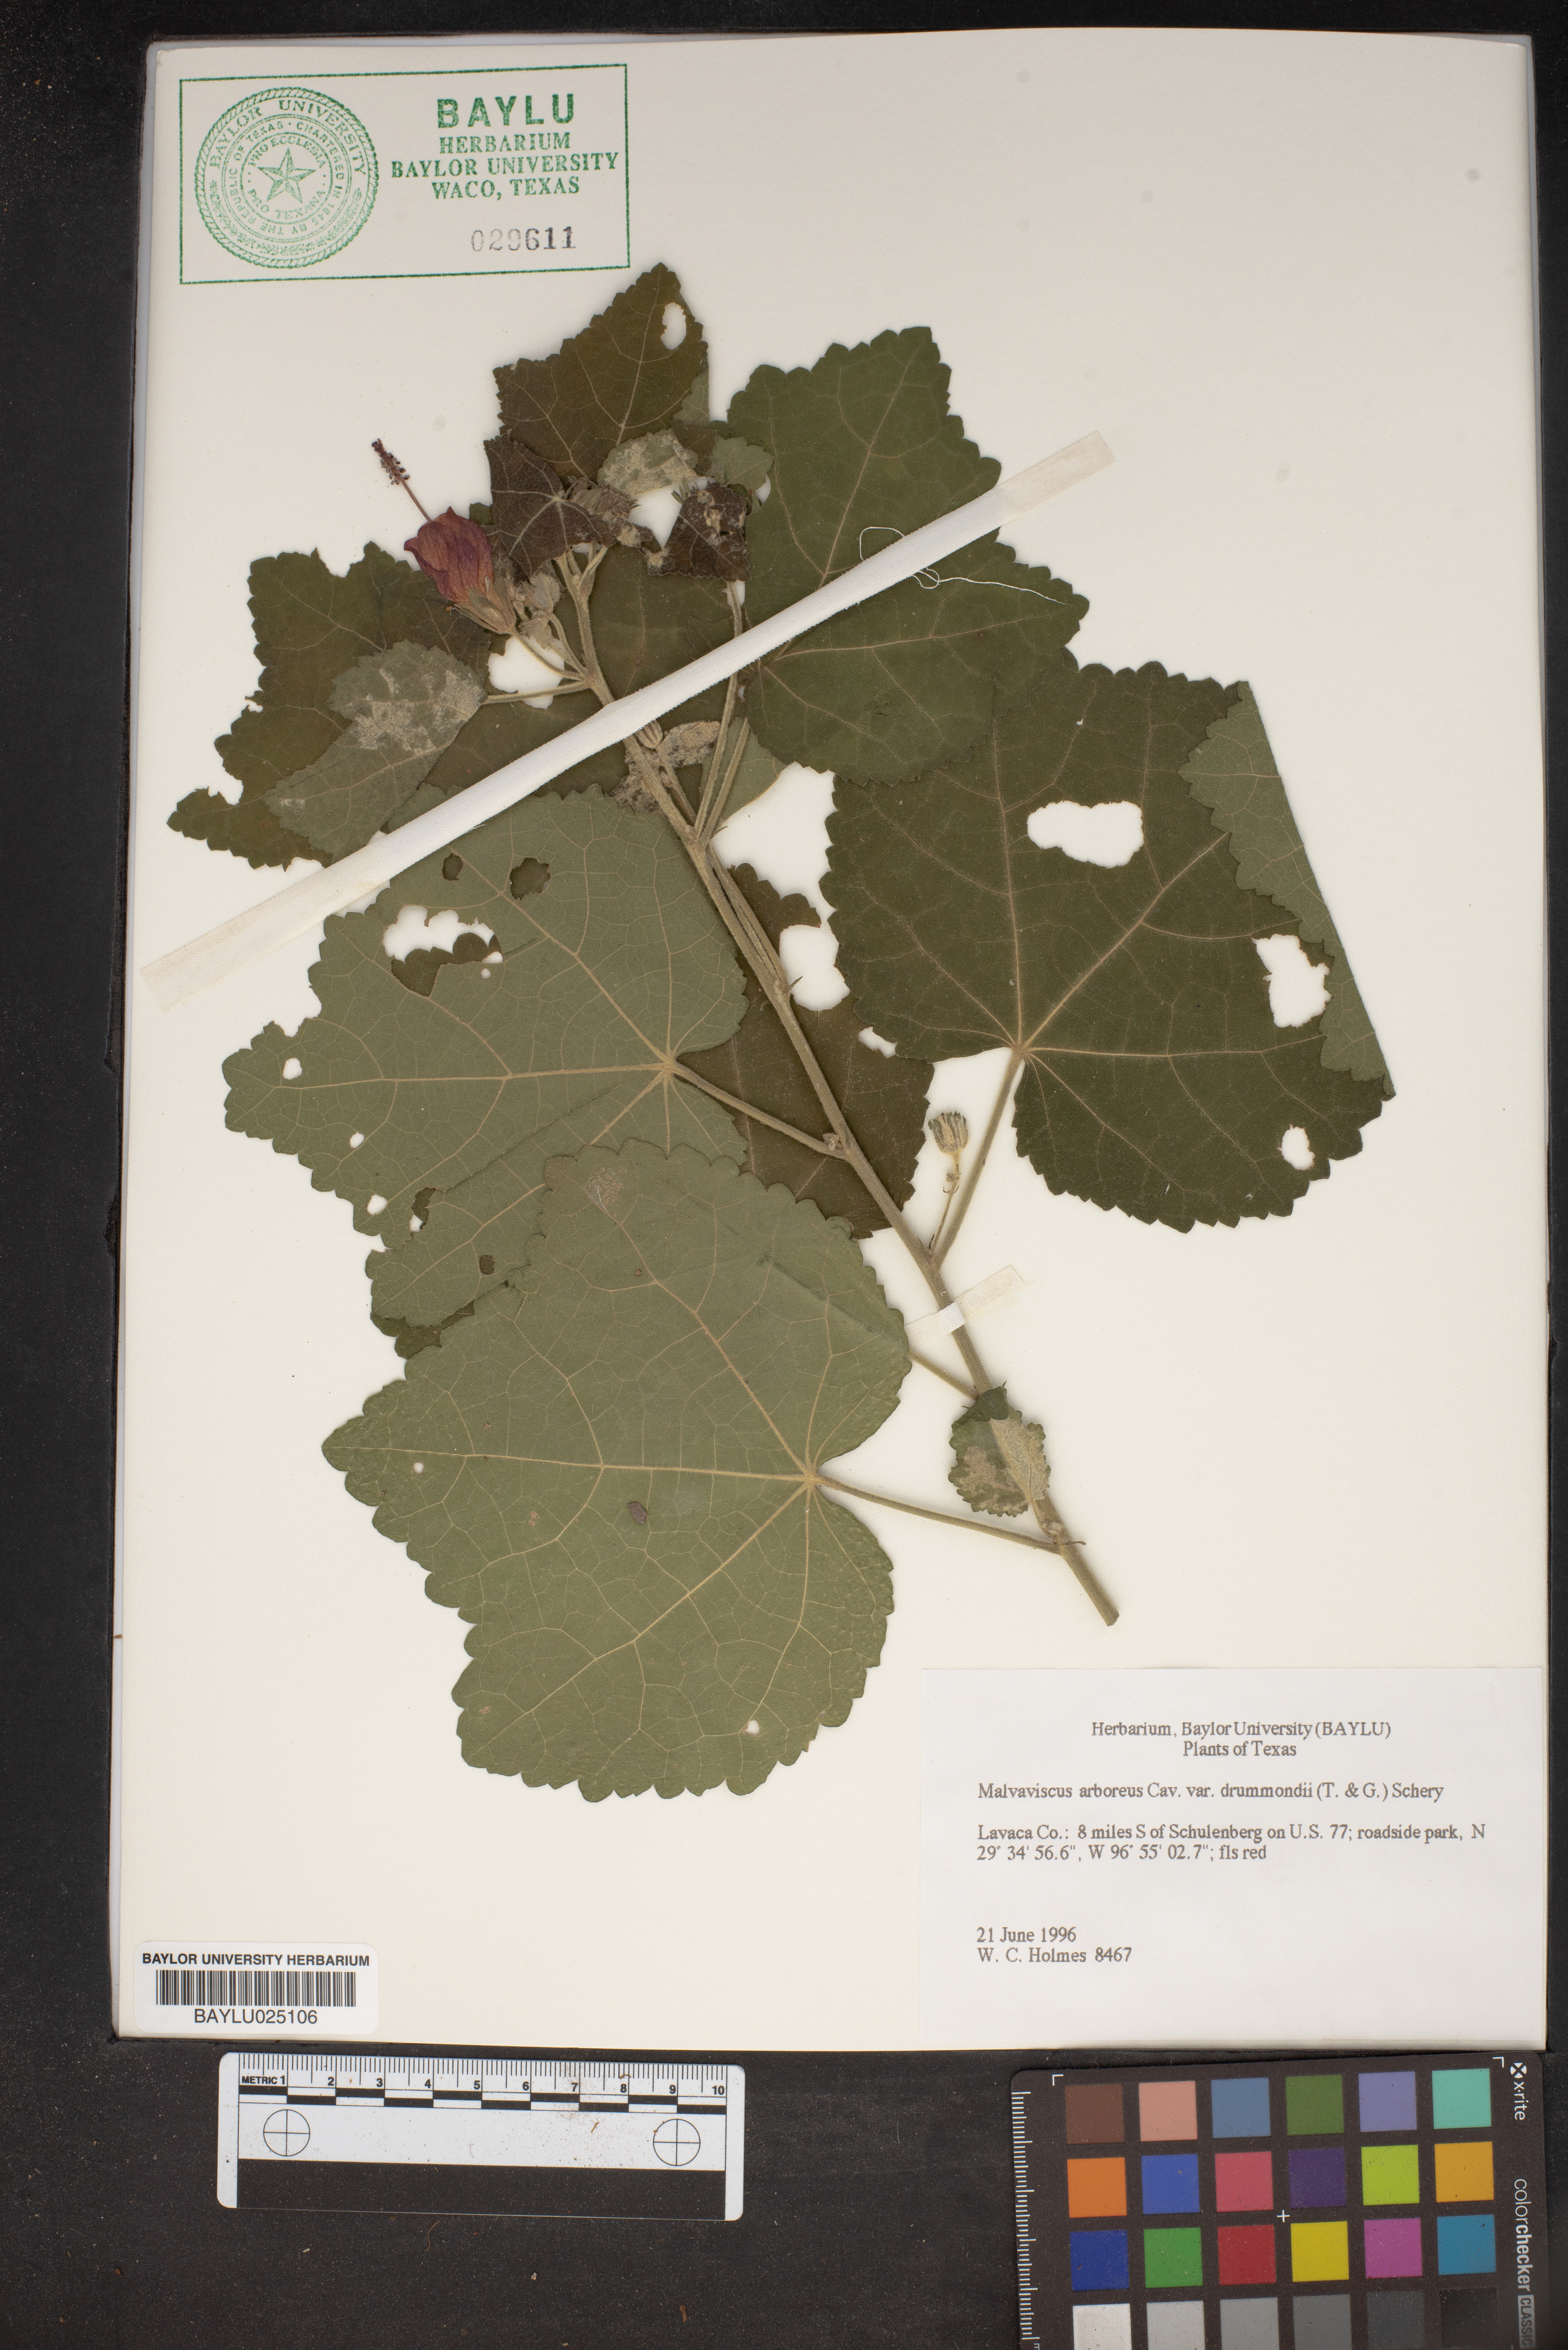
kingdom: Plantae
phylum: Tracheophyta
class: Magnoliopsida
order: Malvales
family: Malvaceae
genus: Malvaviscus
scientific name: Malvaviscus arboreus
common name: Wax mallow
